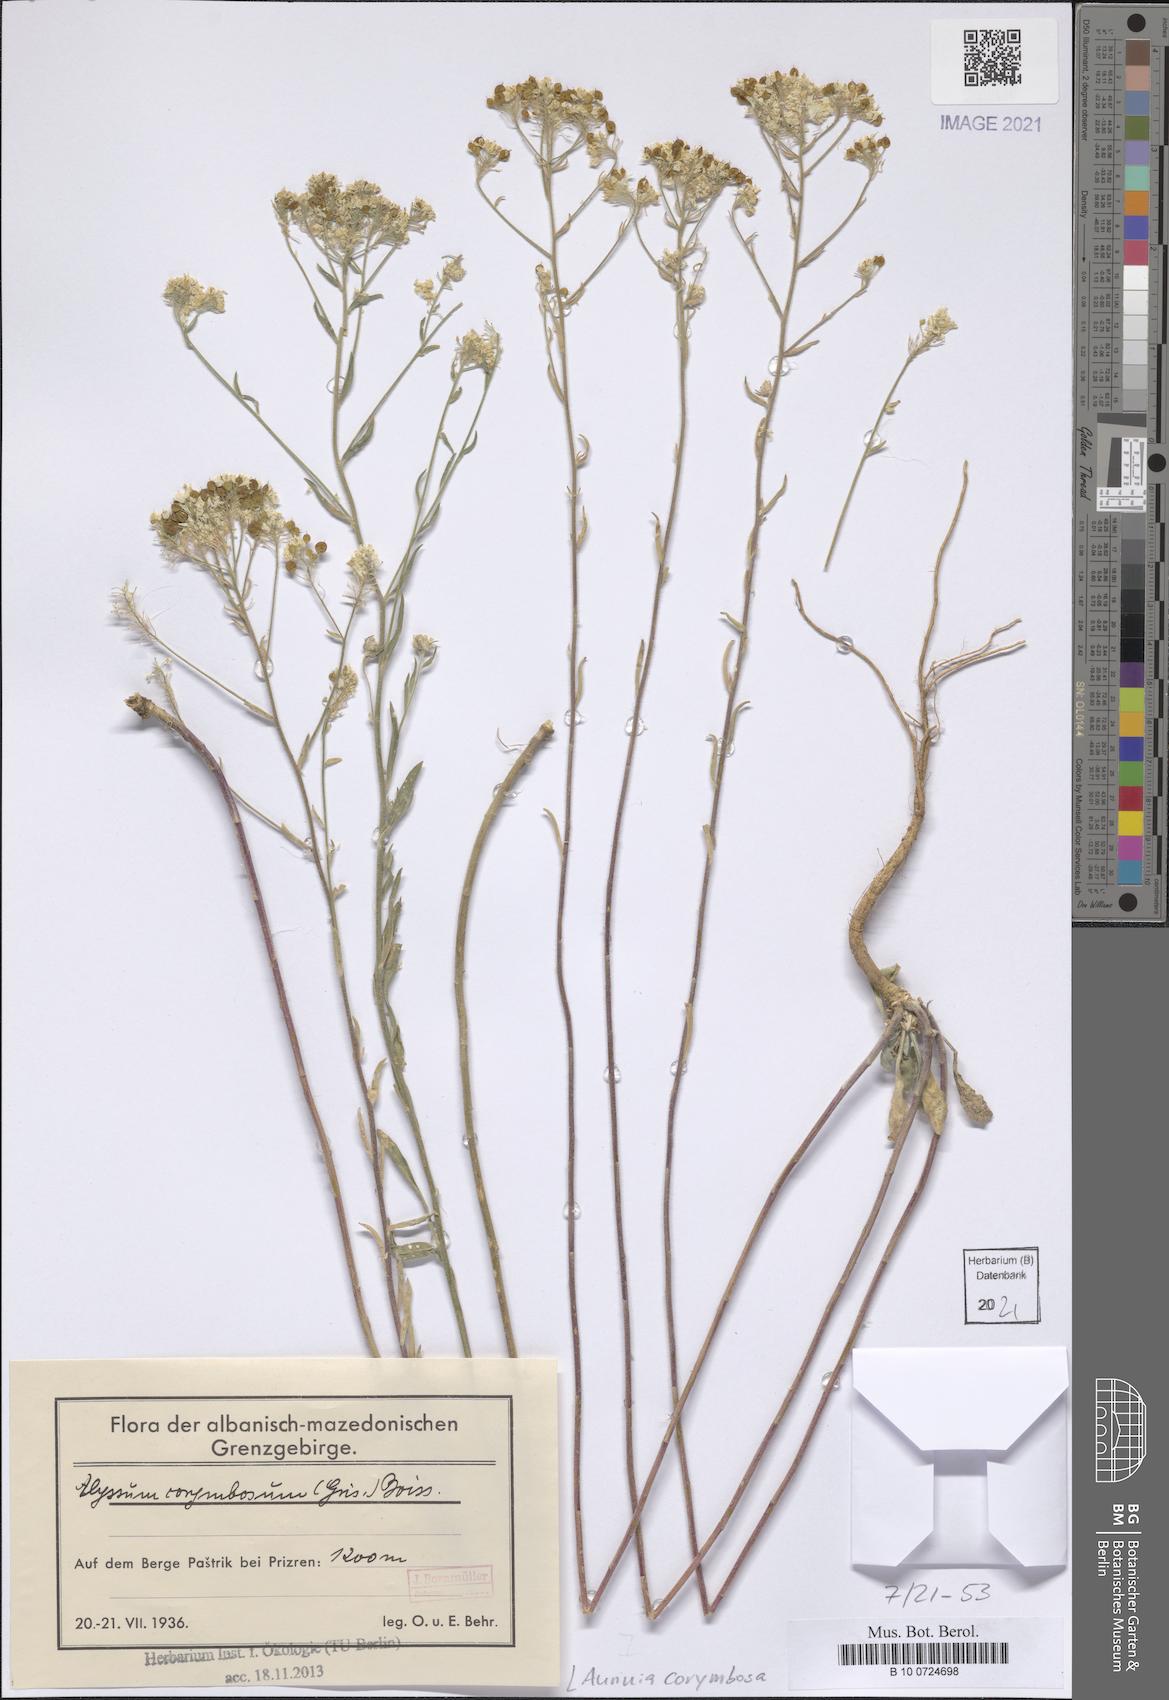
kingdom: Plantae
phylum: Tracheophyta
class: Magnoliopsida
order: Brassicales
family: Brassicaceae
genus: Aurinia
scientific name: Aurinia corymbosa
